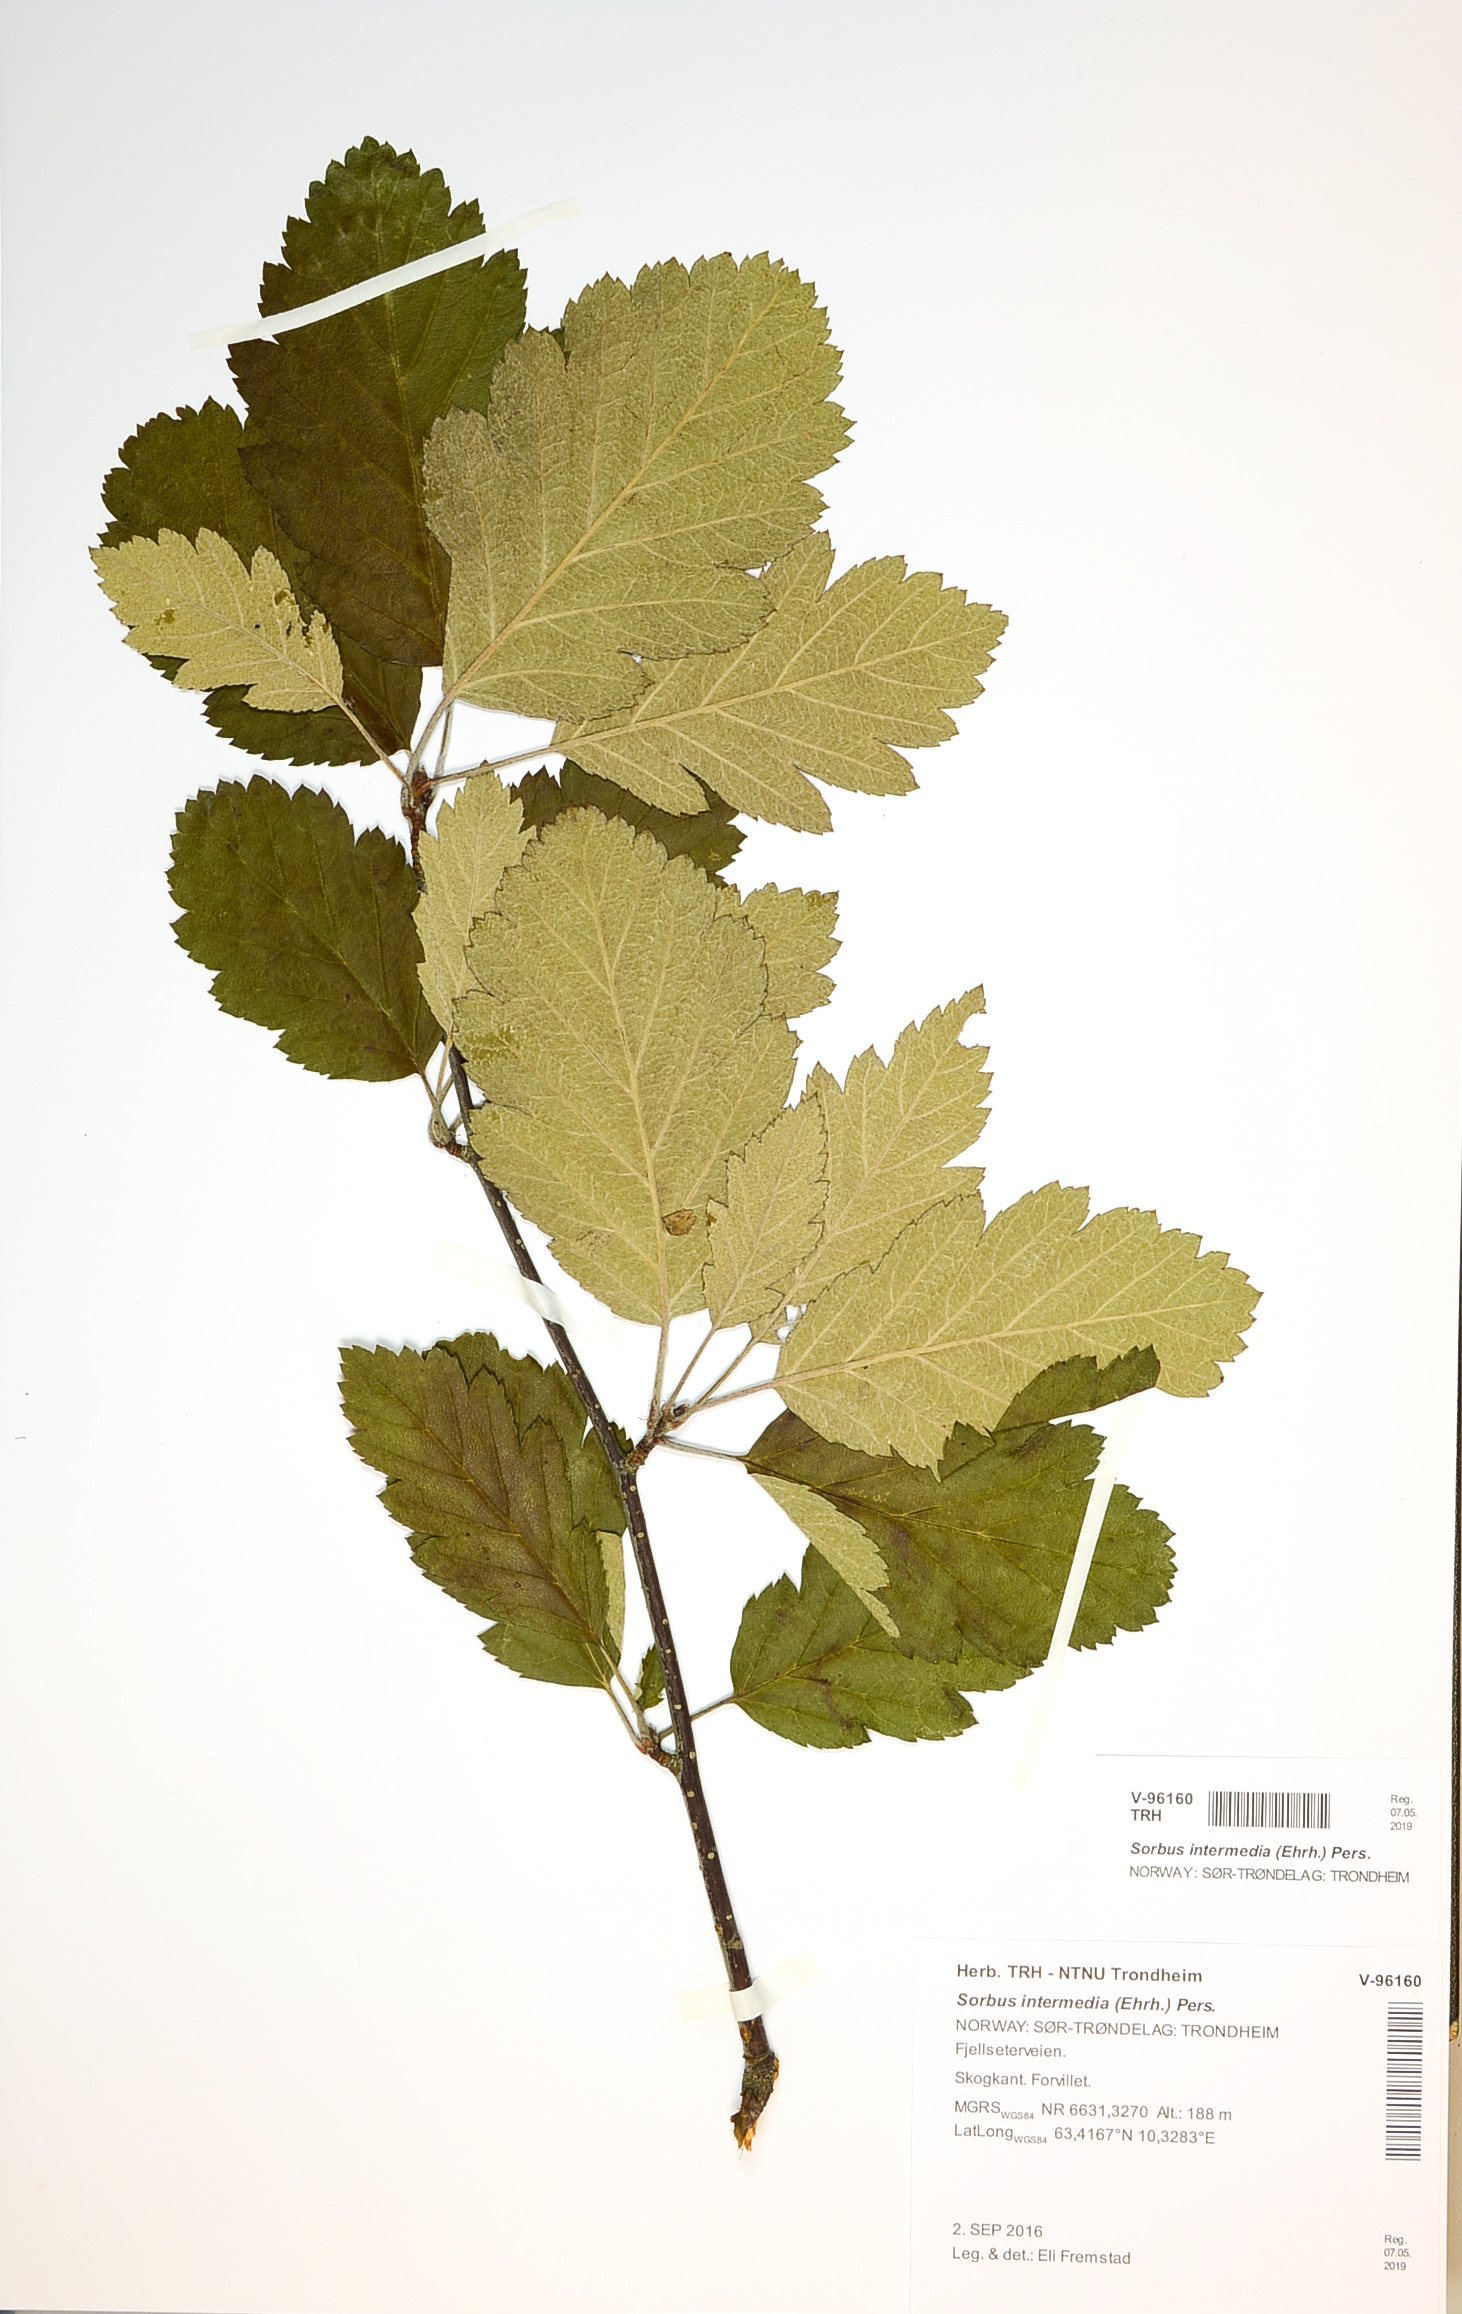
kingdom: Plantae
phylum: Tracheophyta
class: Magnoliopsida
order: Rosales
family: Rosaceae
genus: Scandosorbus
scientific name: Scandosorbus intermedia
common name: Swedish whitebeam
